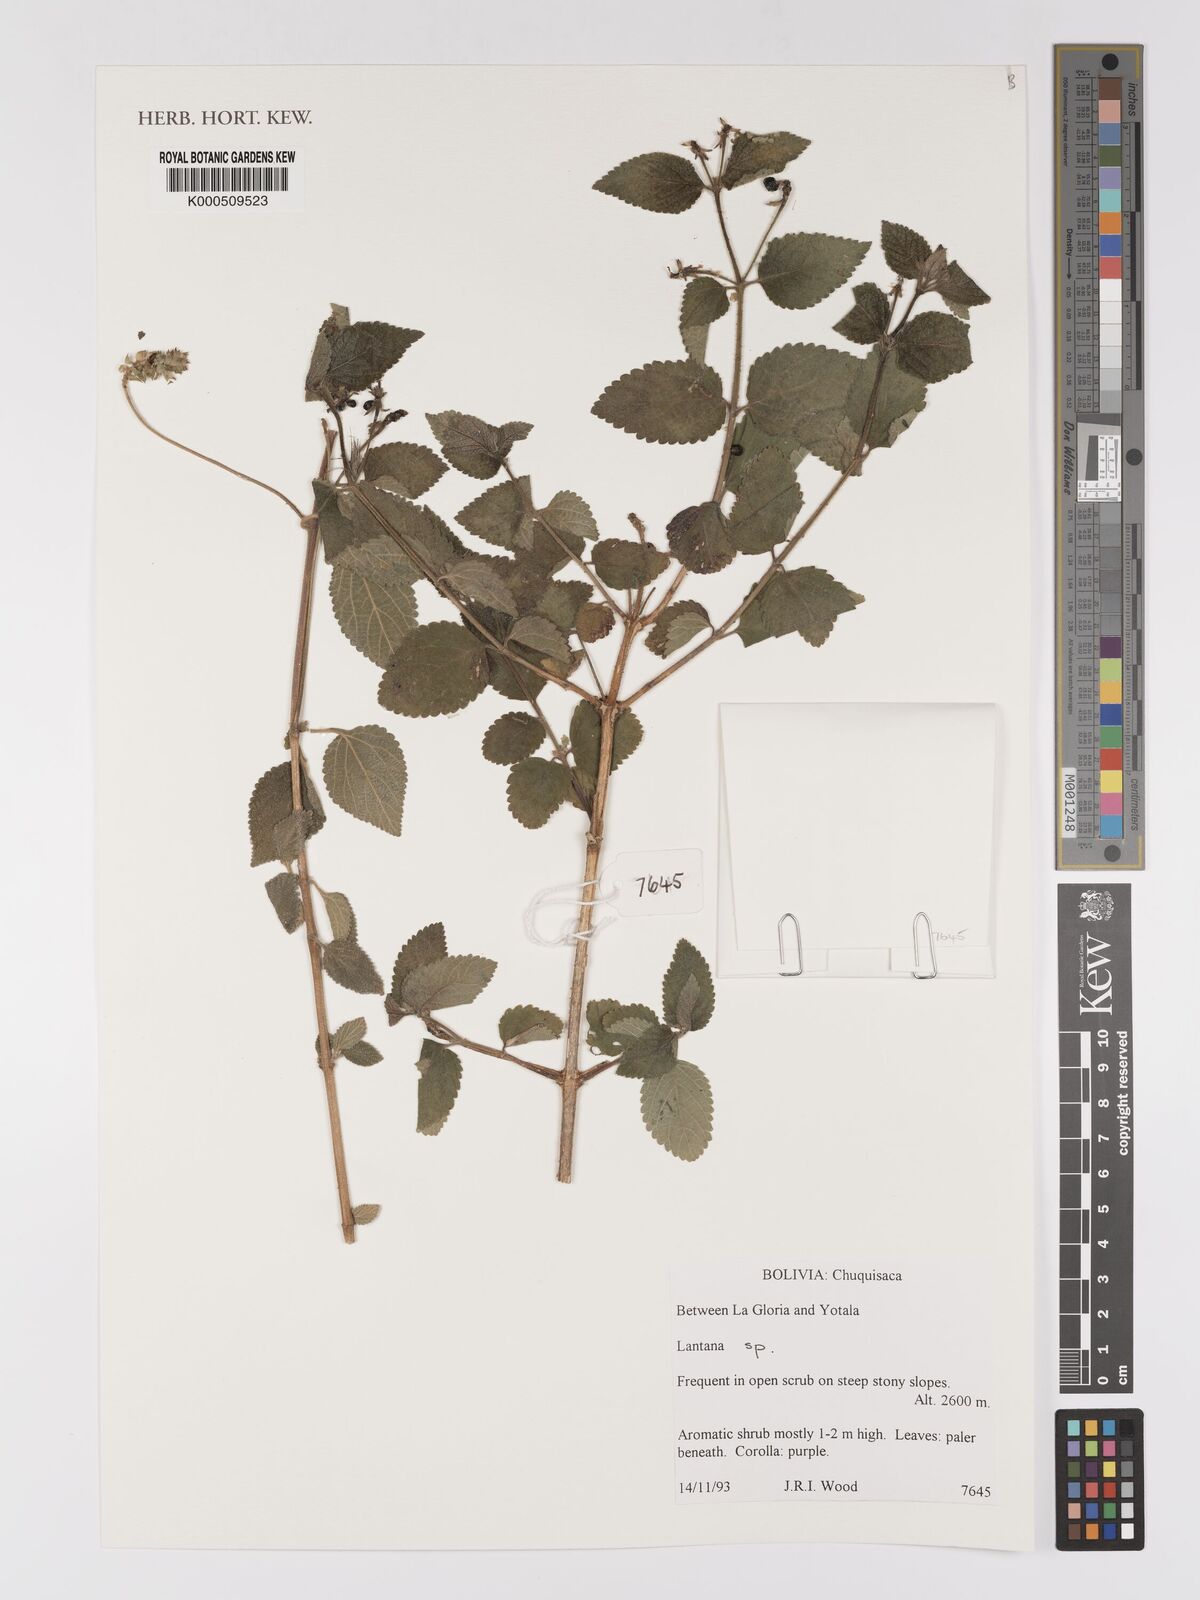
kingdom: Plantae
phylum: Tracheophyta
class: Magnoliopsida
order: Lamiales
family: Verbenaceae
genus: Lantana
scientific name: Lantana
